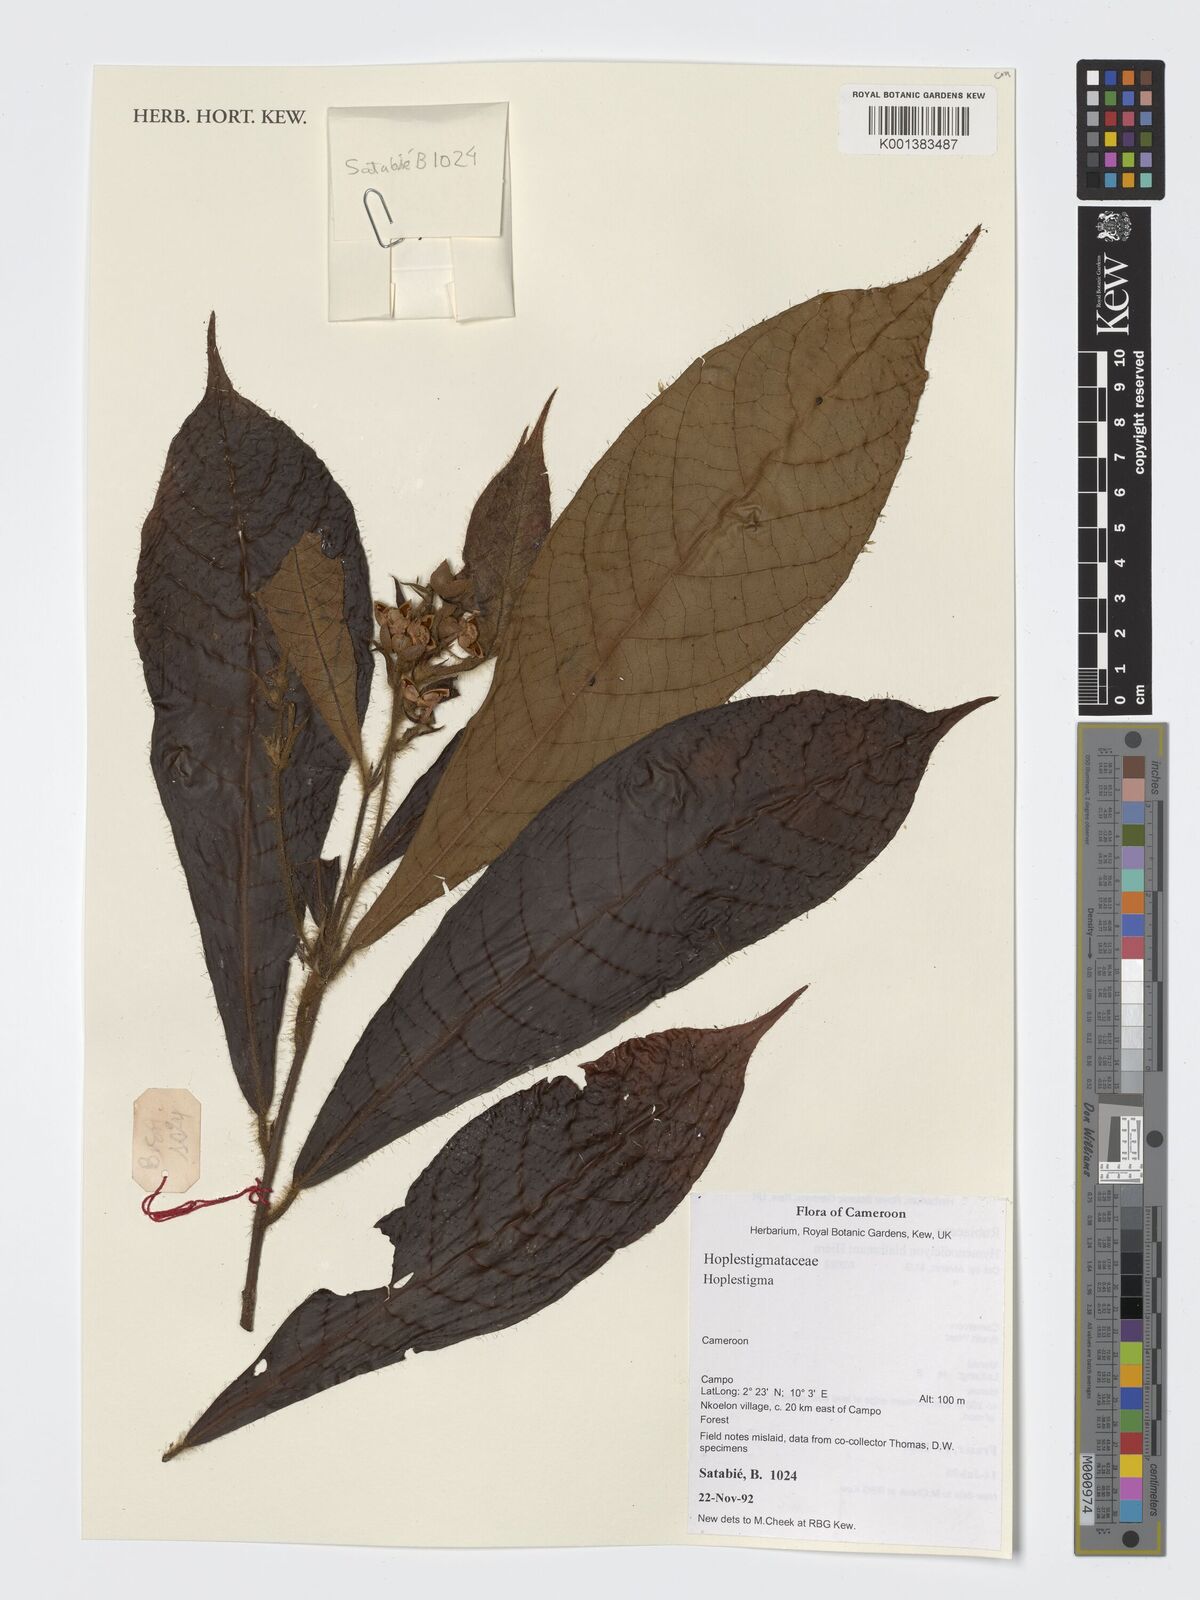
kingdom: Plantae
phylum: Tracheophyta
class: Magnoliopsida
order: Boraginales
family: Hoplestigmataceae
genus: Hoplestigma
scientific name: Hoplestigma
